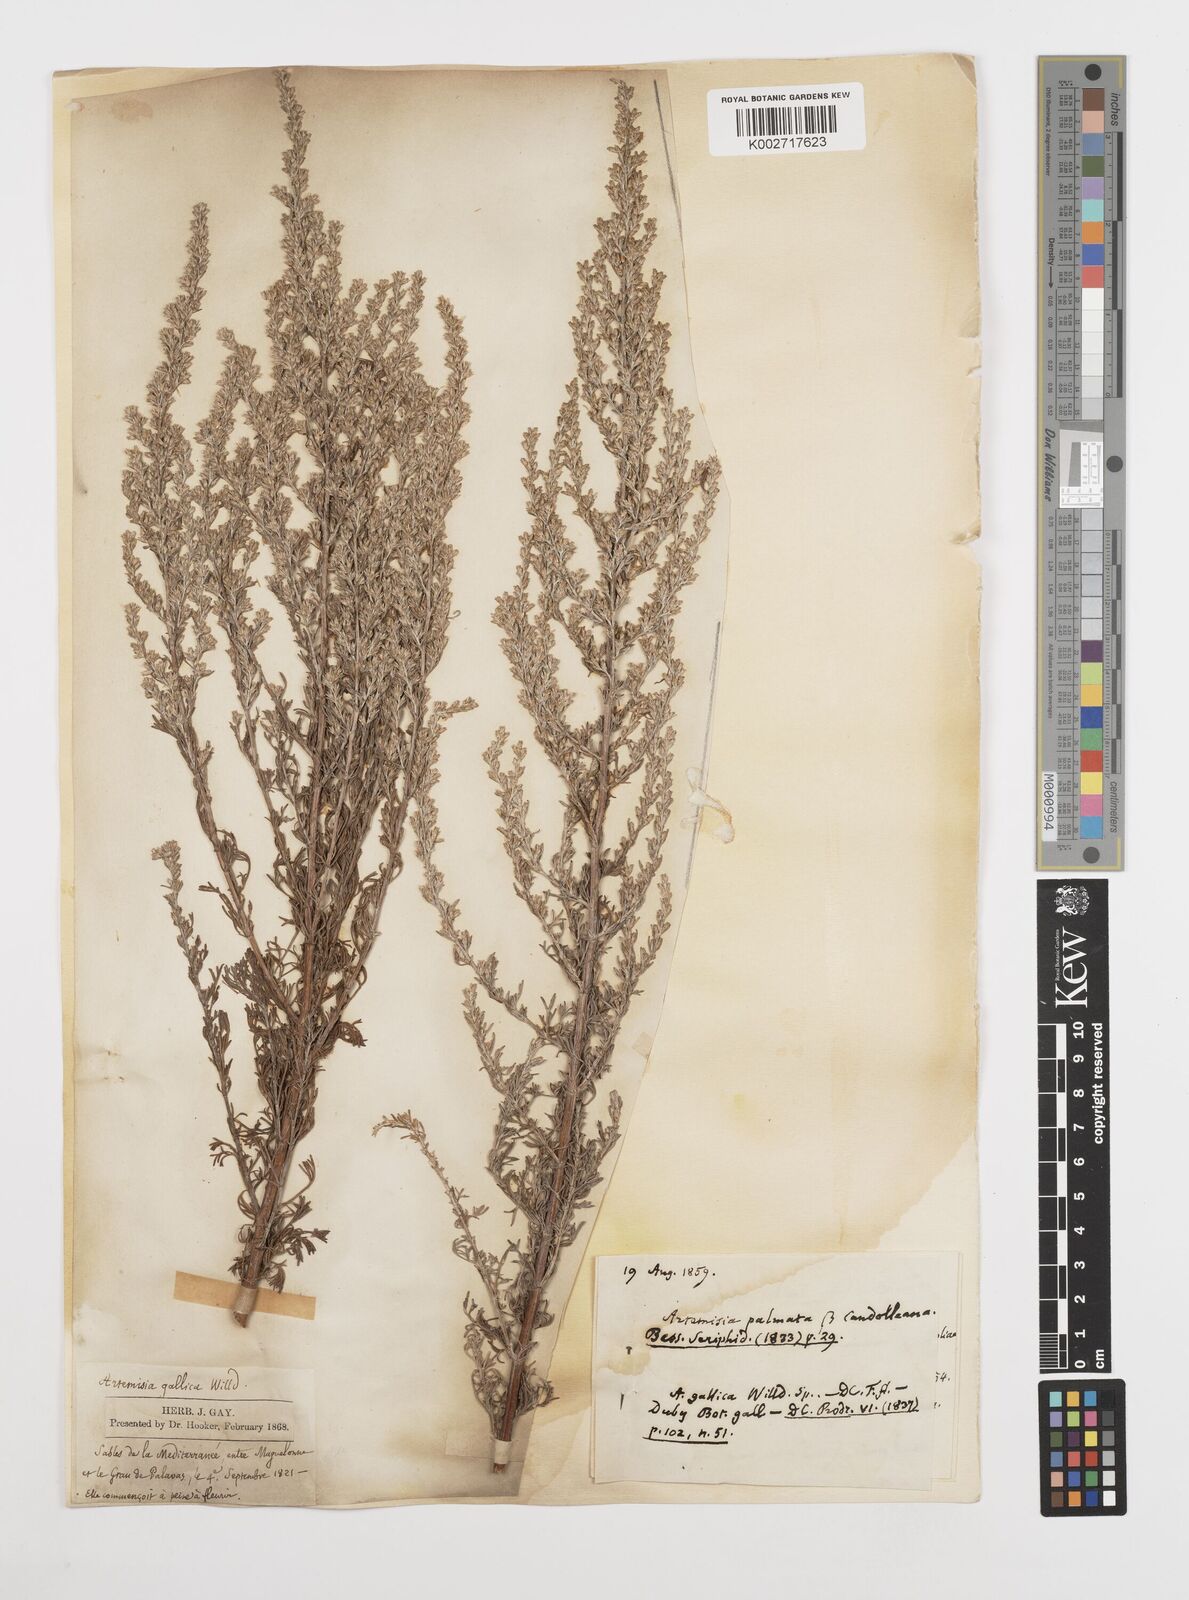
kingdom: Plantae
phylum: Tracheophyta
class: Magnoliopsida
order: Asterales
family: Asteraceae
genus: Artemisia
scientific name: Artemisia campestris
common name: Field wormwood
